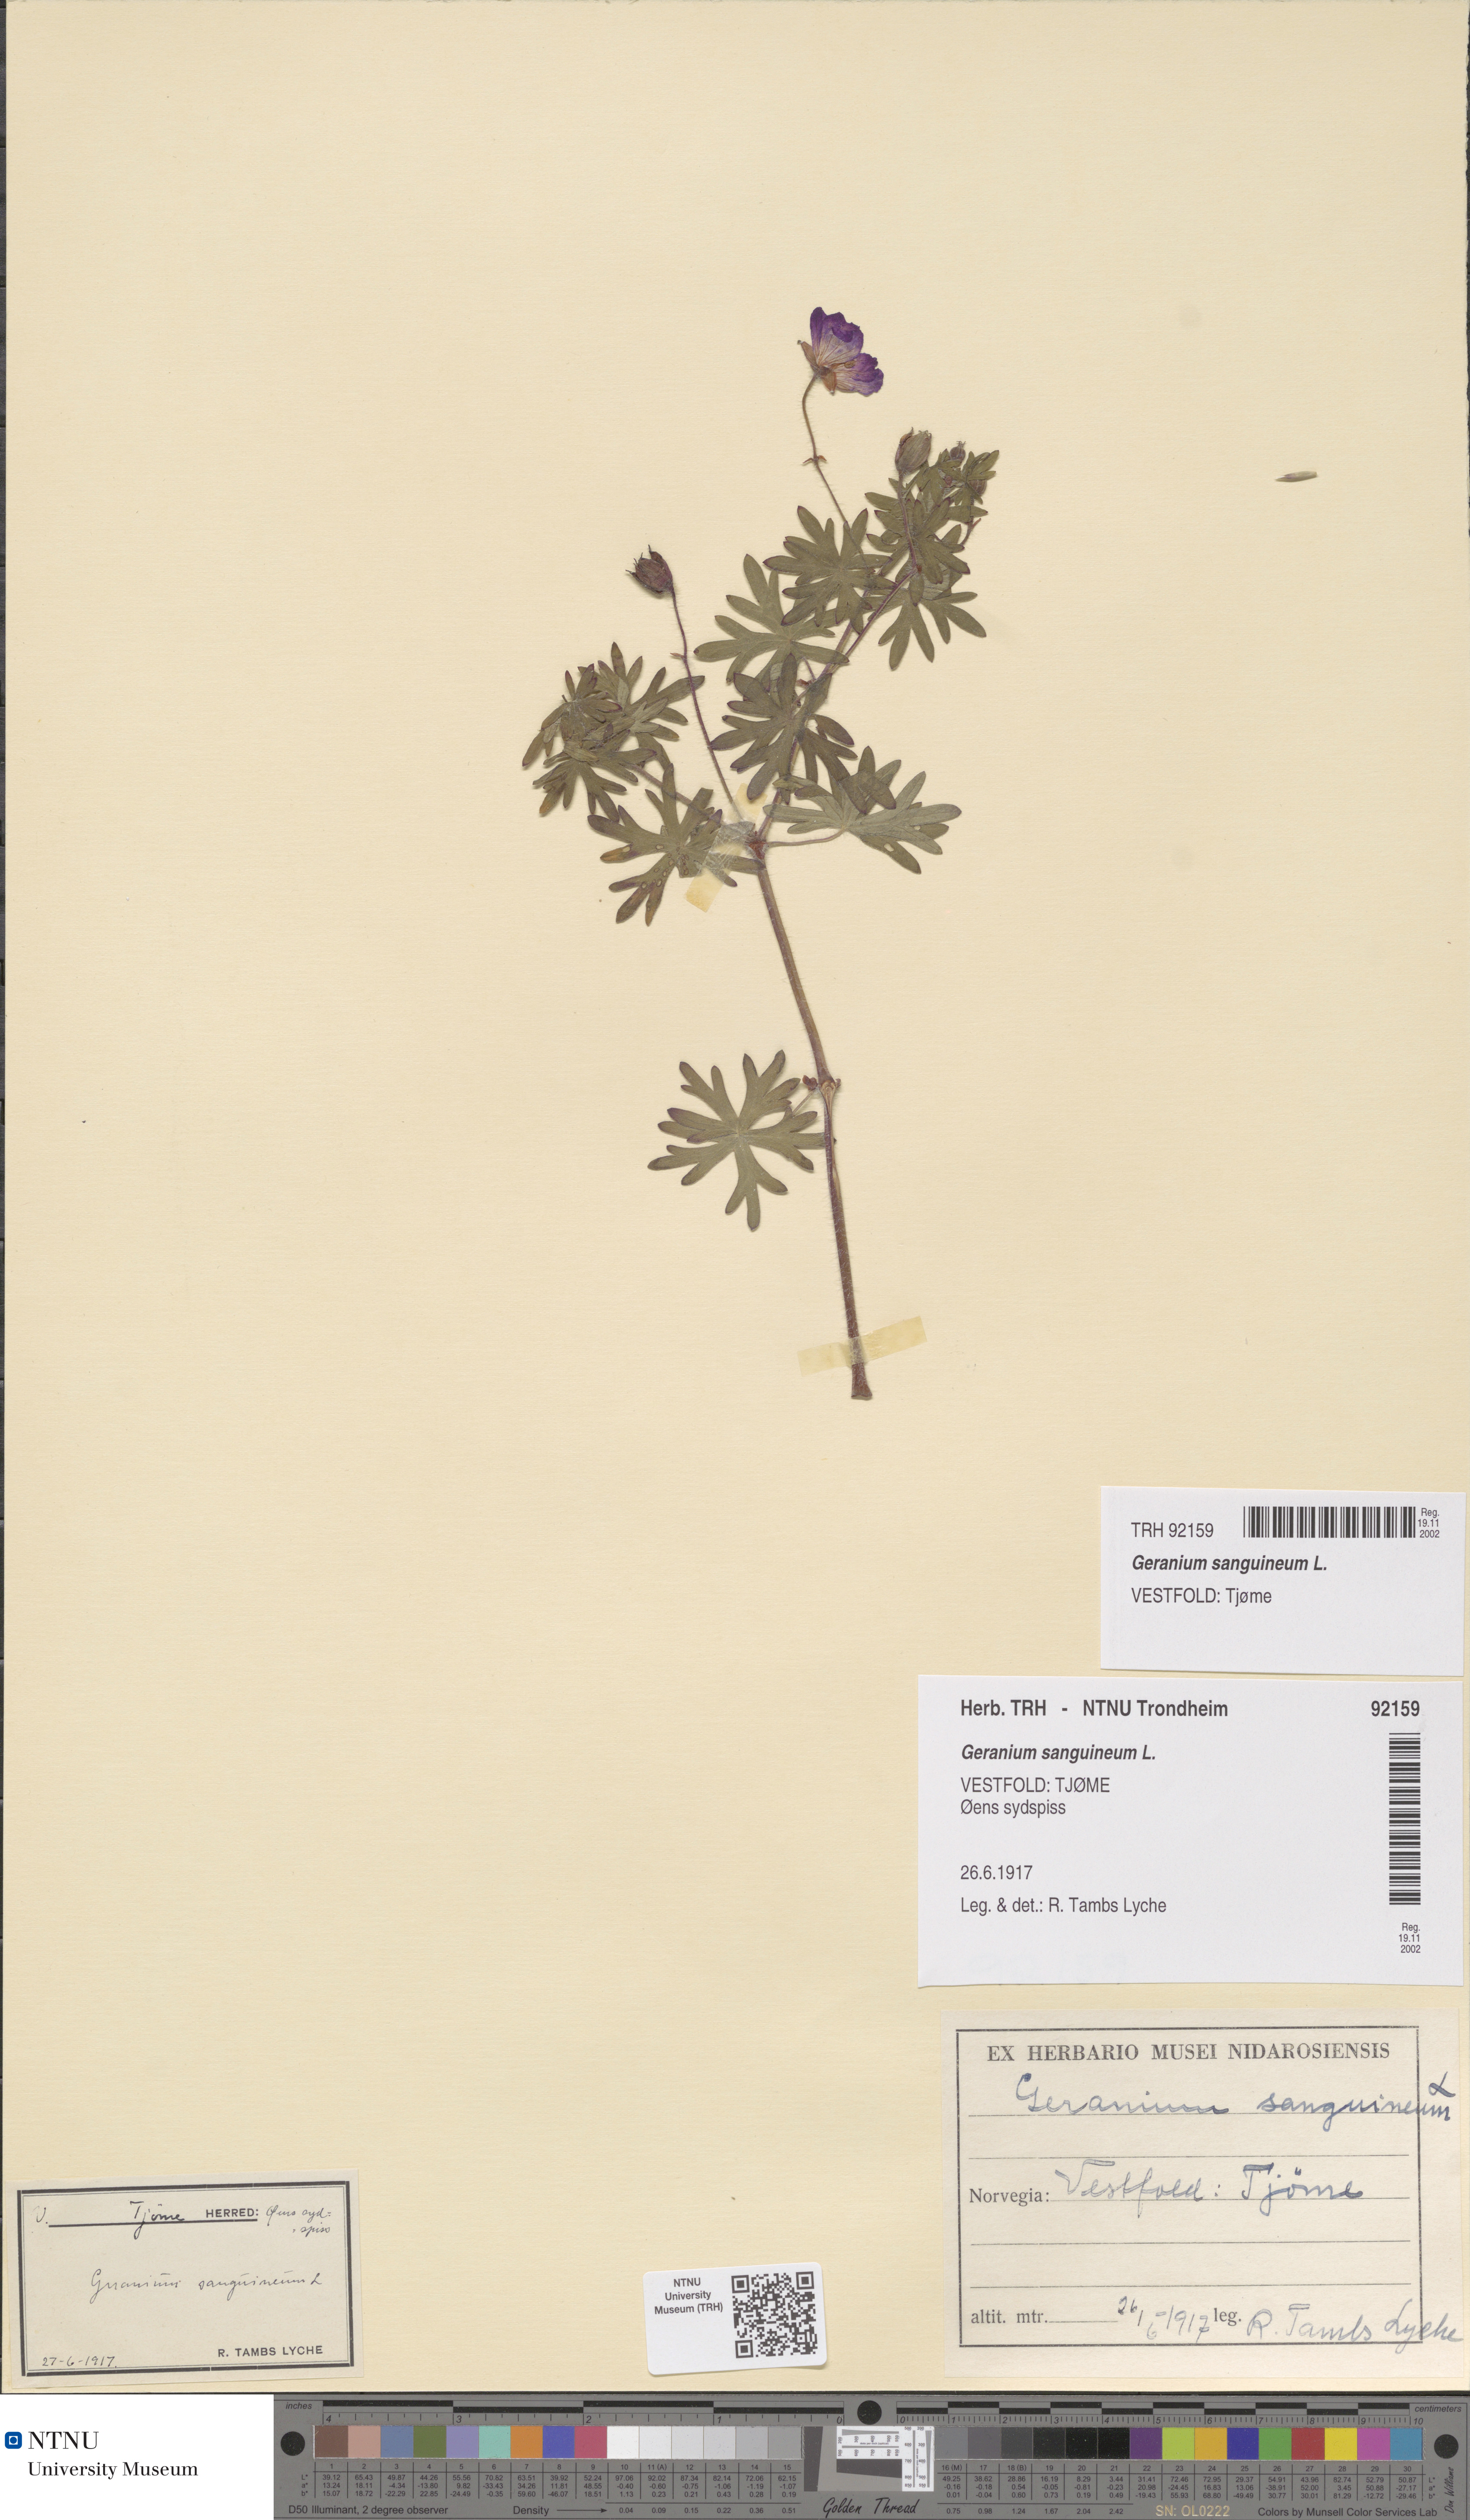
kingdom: Plantae
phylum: Tracheophyta
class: Magnoliopsida
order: Geraniales
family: Geraniaceae
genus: Geranium
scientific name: Geranium sanguineum
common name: Bloody crane's-bill
